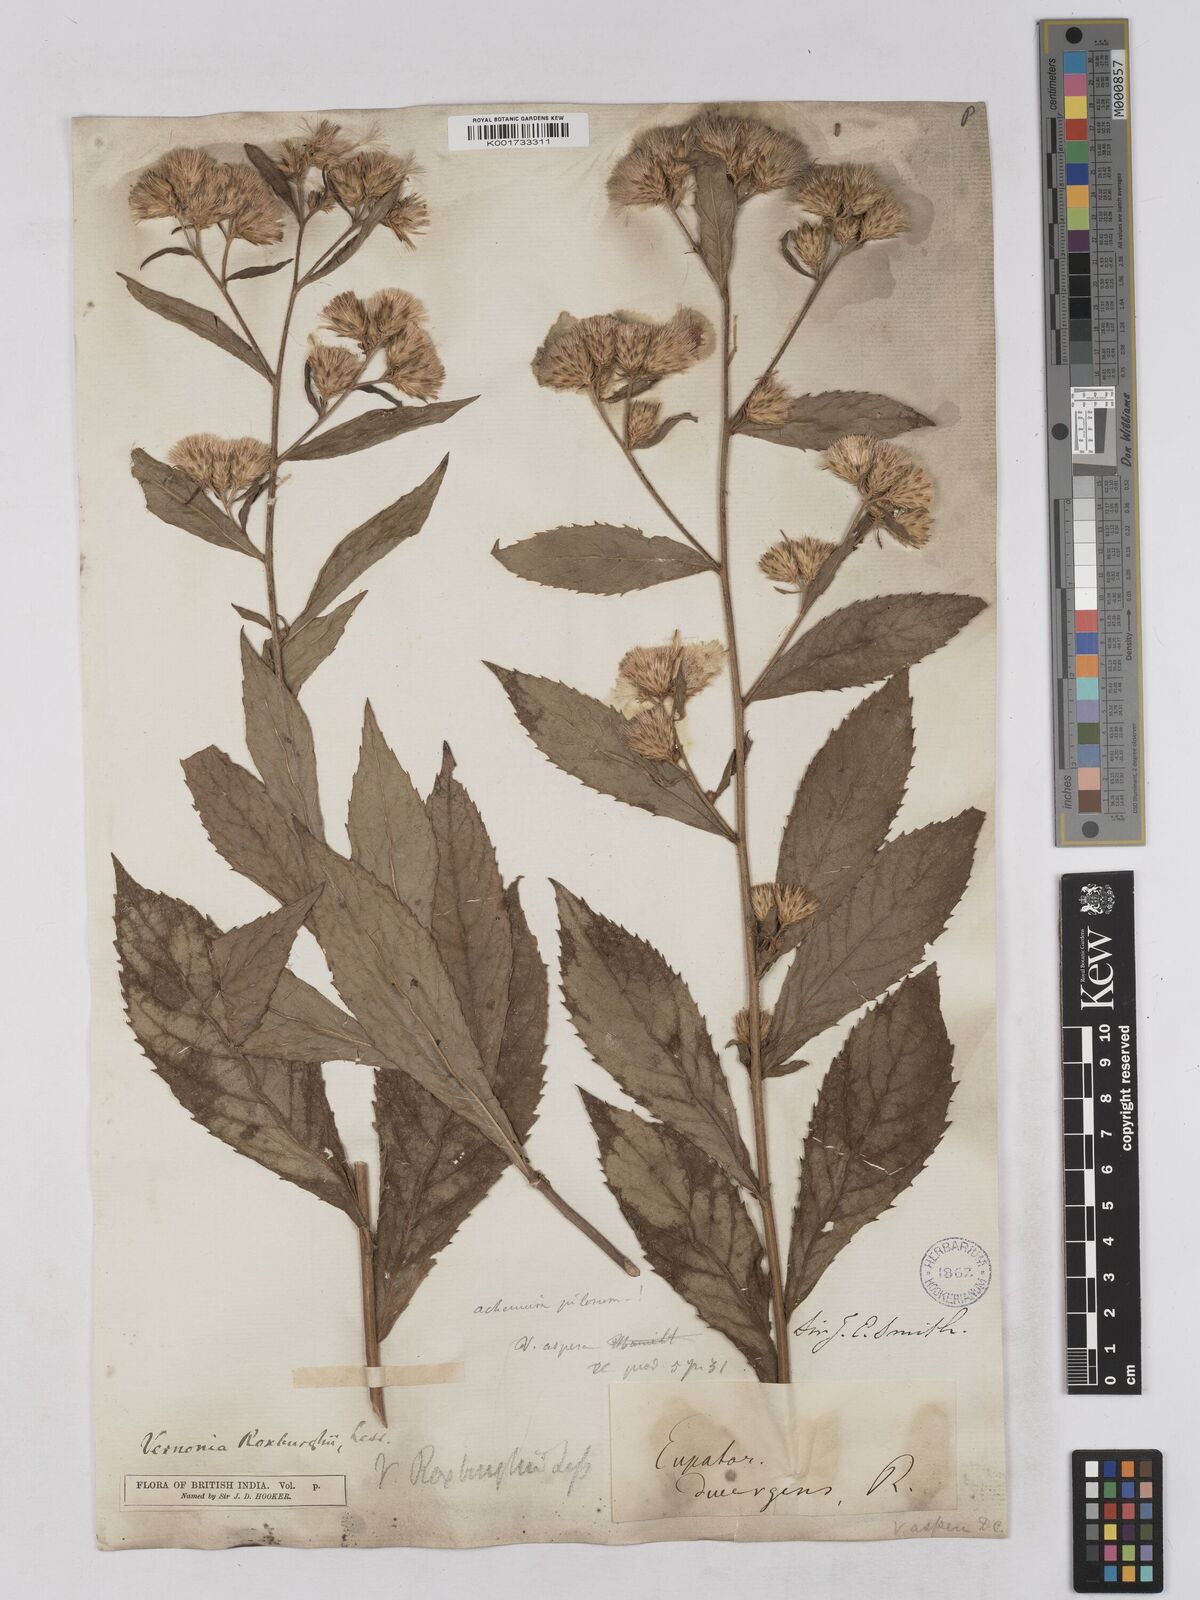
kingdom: Plantae
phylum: Tracheophyta
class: Magnoliopsida
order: Asterales
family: Asteraceae
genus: Acilepis
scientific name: Acilepis aspera
